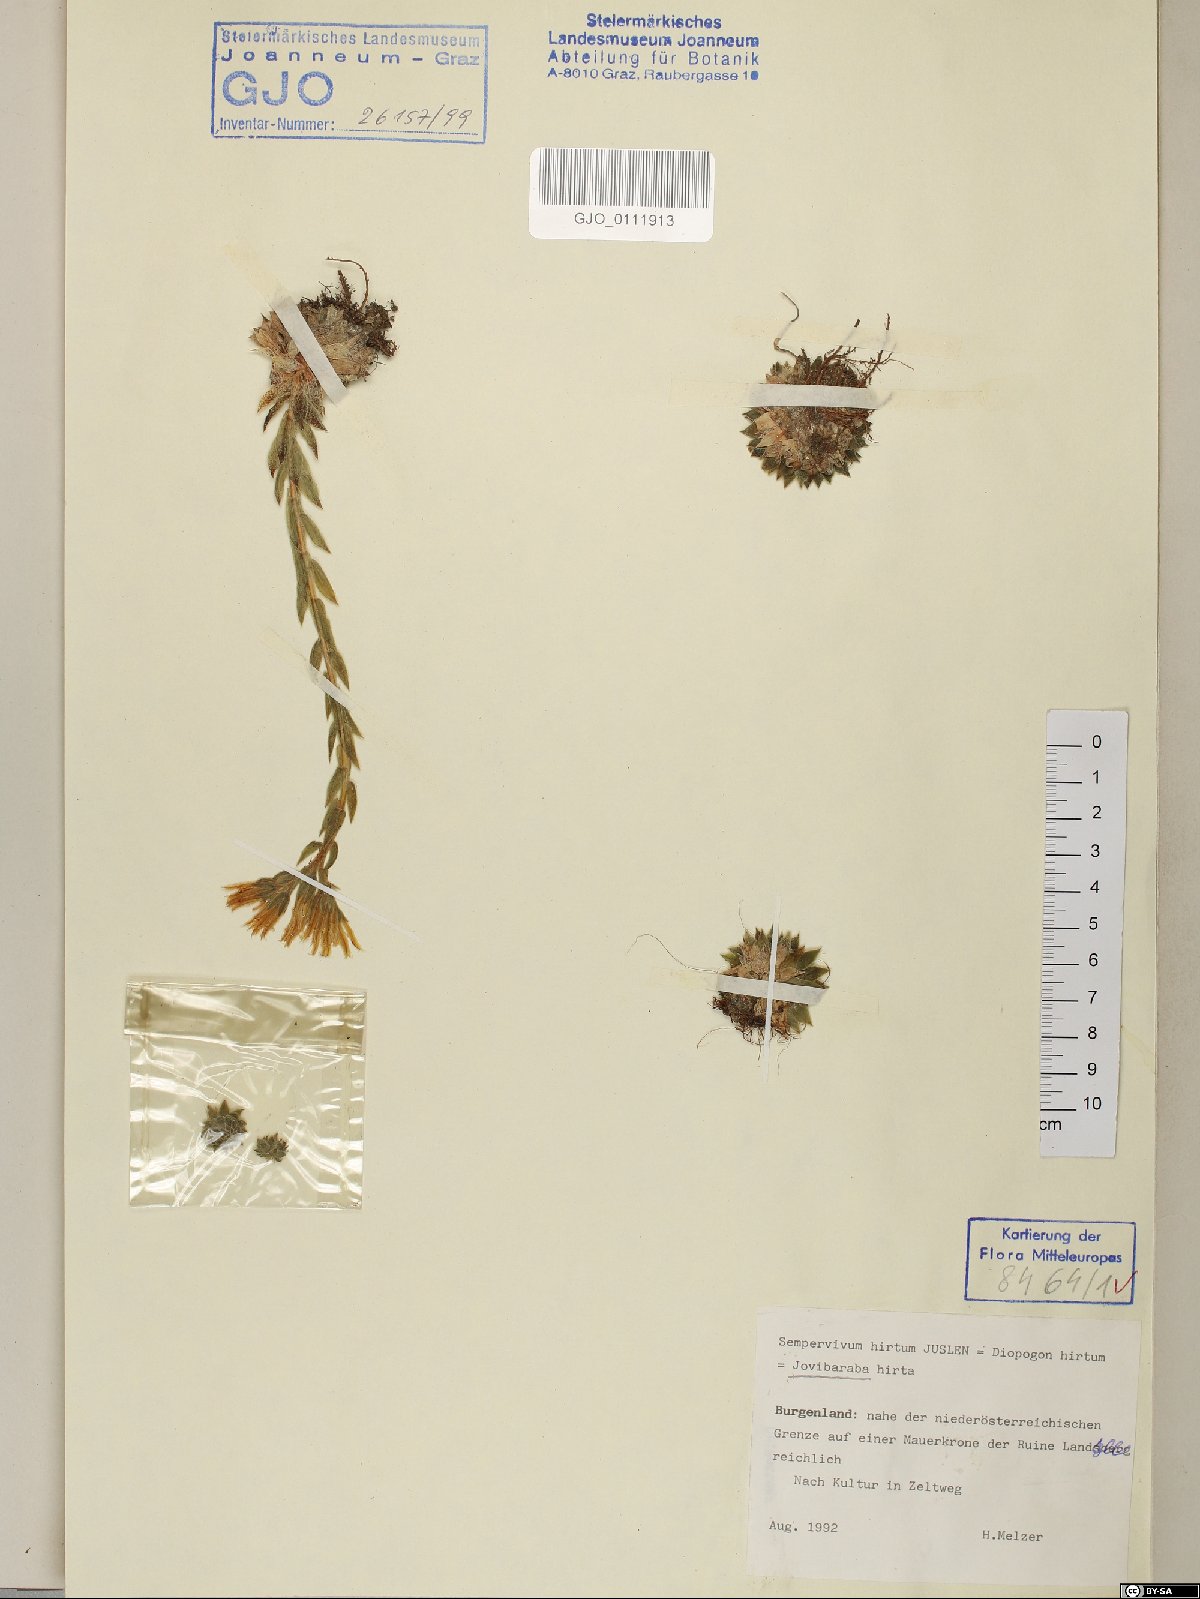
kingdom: Plantae
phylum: Tracheophyta
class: Magnoliopsida
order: Saxifragales
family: Crassulaceae
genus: Sempervivum
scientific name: Sempervivum globiferum
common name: Rolling hen-and-chicks
